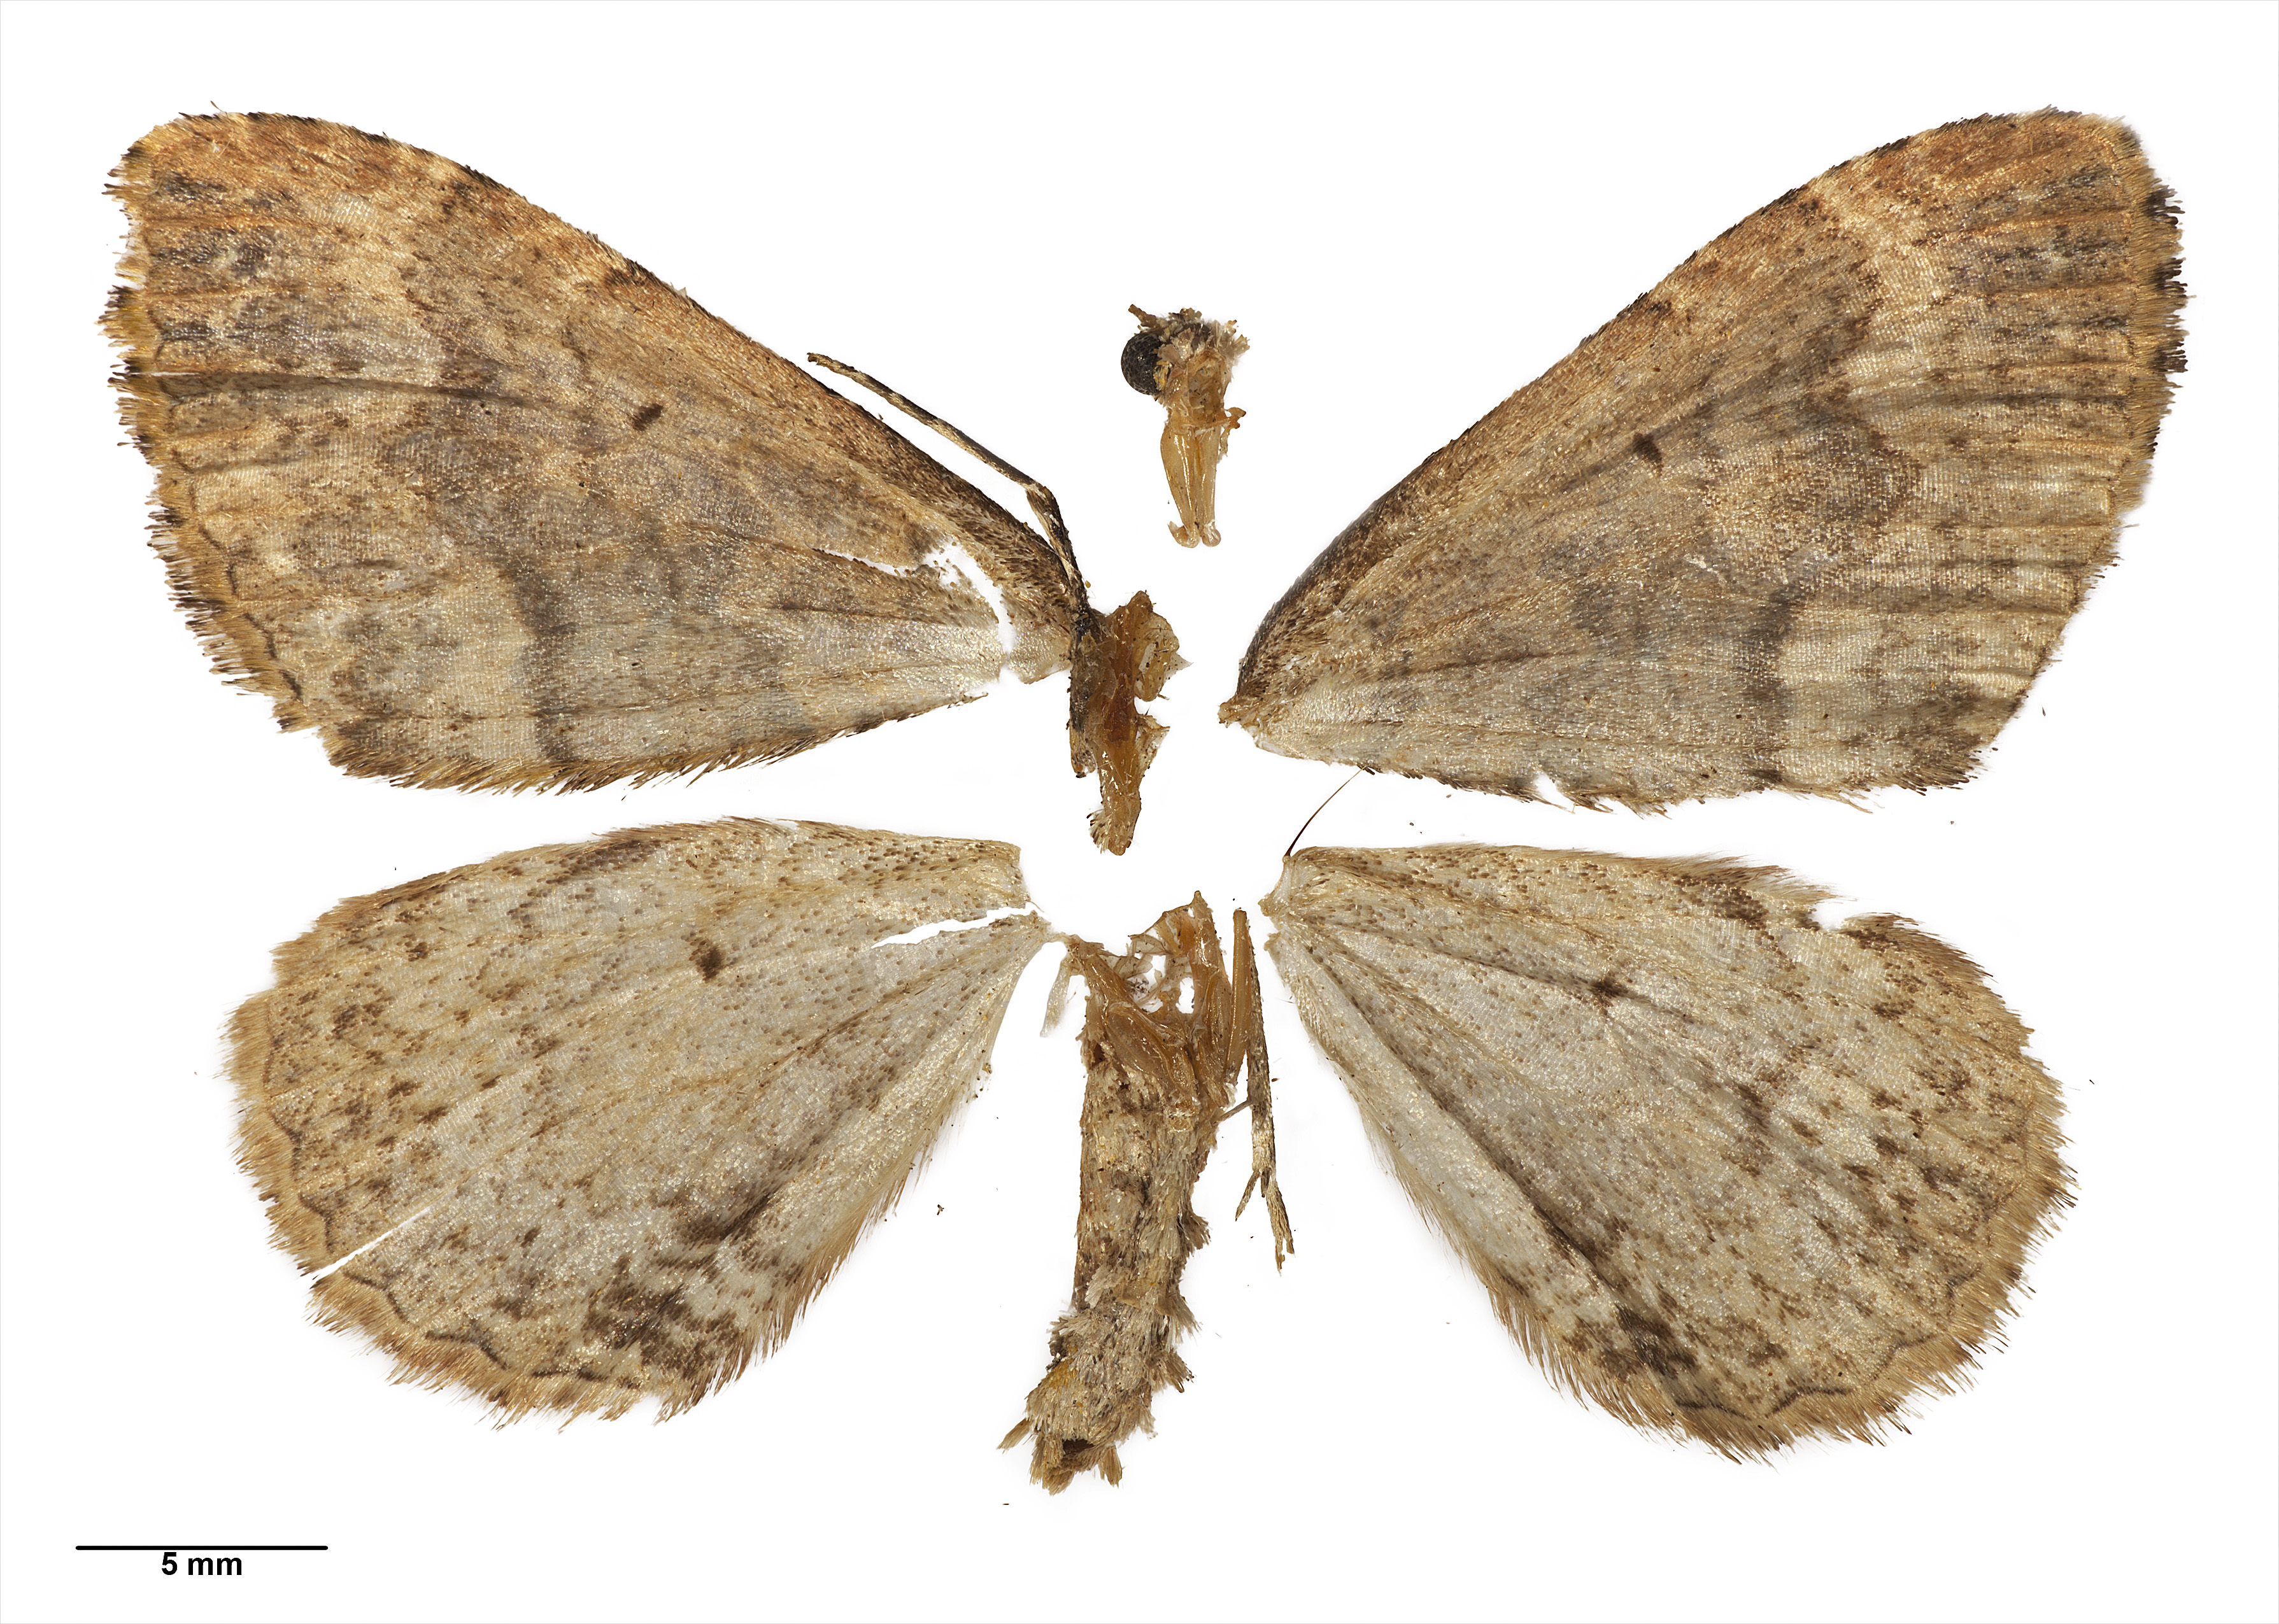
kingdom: Animalia
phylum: Arthropoda
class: Insecta
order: Lepidoptera
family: Geometridae
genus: Austrocidaria
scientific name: Austrocidaria callichlora
